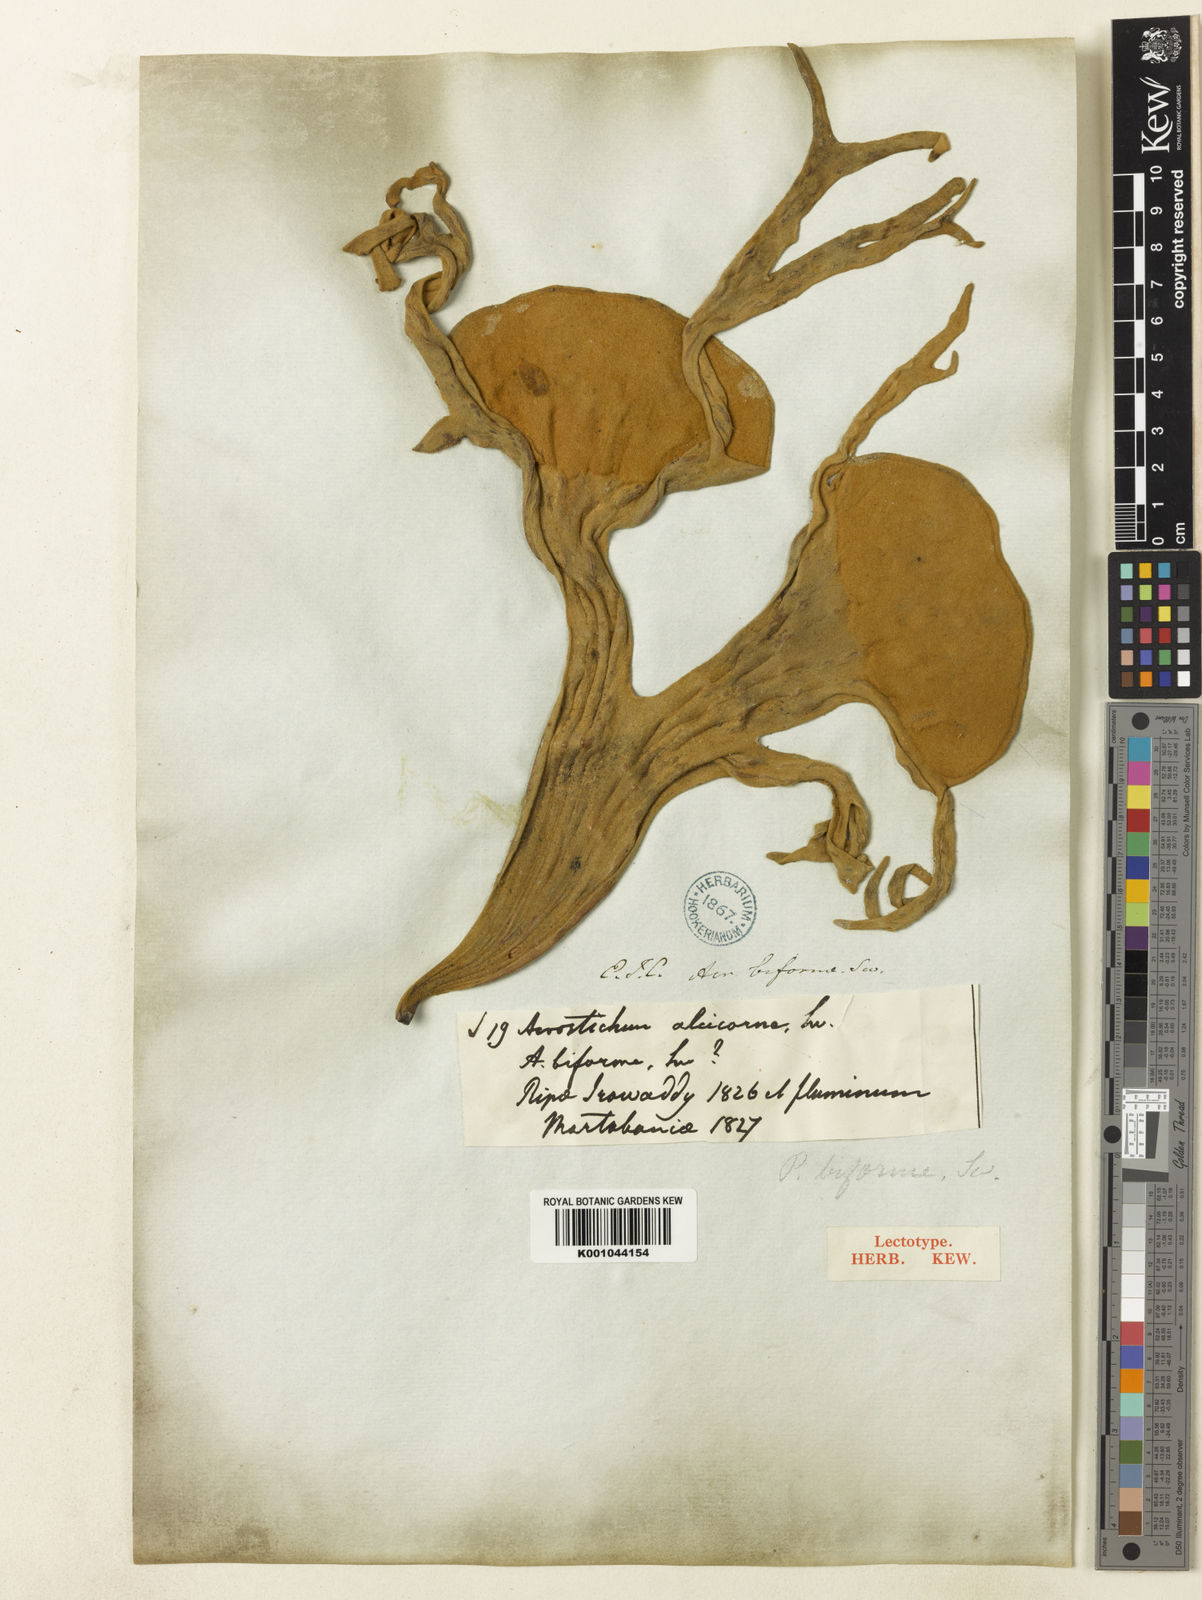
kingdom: Plantae
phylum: Tracheophyta
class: Polypodiopsida
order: Polypodiales
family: Polypodiaceae
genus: Platycerium
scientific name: Platycerium wallichii
